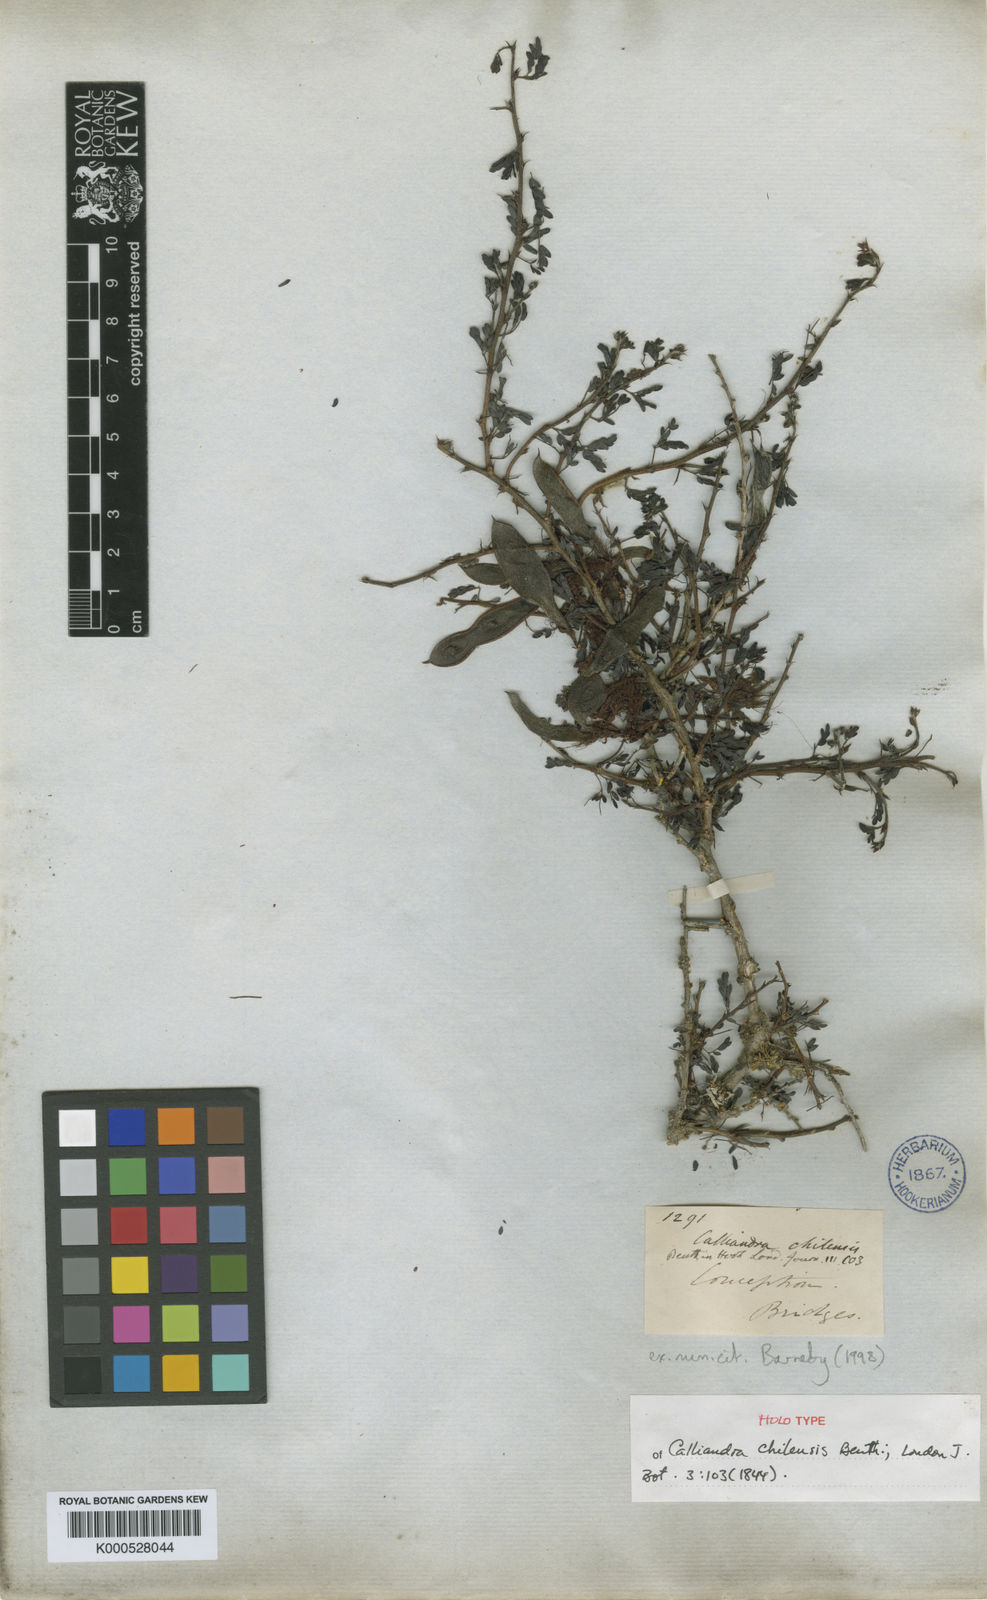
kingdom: Plantae
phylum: Tracheophyta
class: Magnoliopsida
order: Fabales
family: Fabaceae
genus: Calliandra
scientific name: Calliandra chilensis
